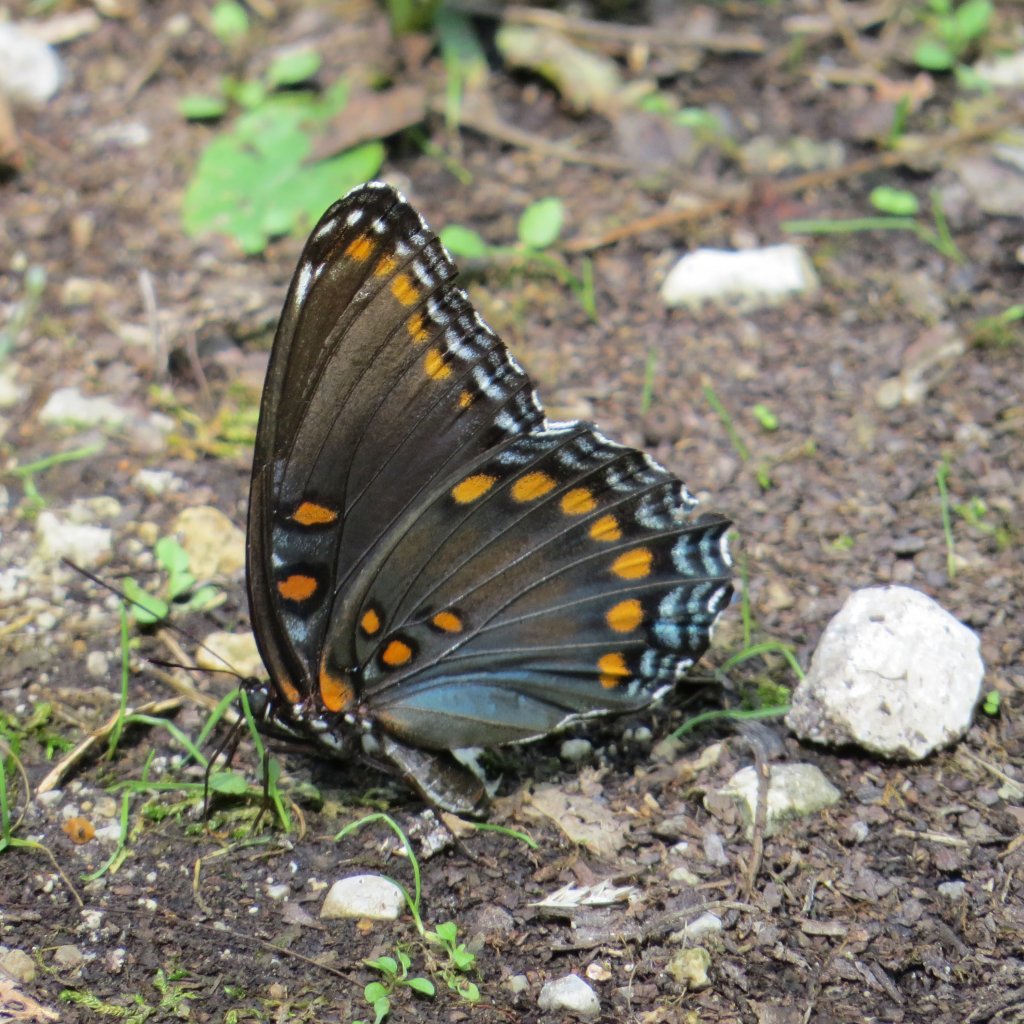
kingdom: Animalia
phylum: Arthropoda
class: Insecta
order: Lepidoptera
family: Nymphalidae
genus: Limenitis
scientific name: Limenitis astyanax
